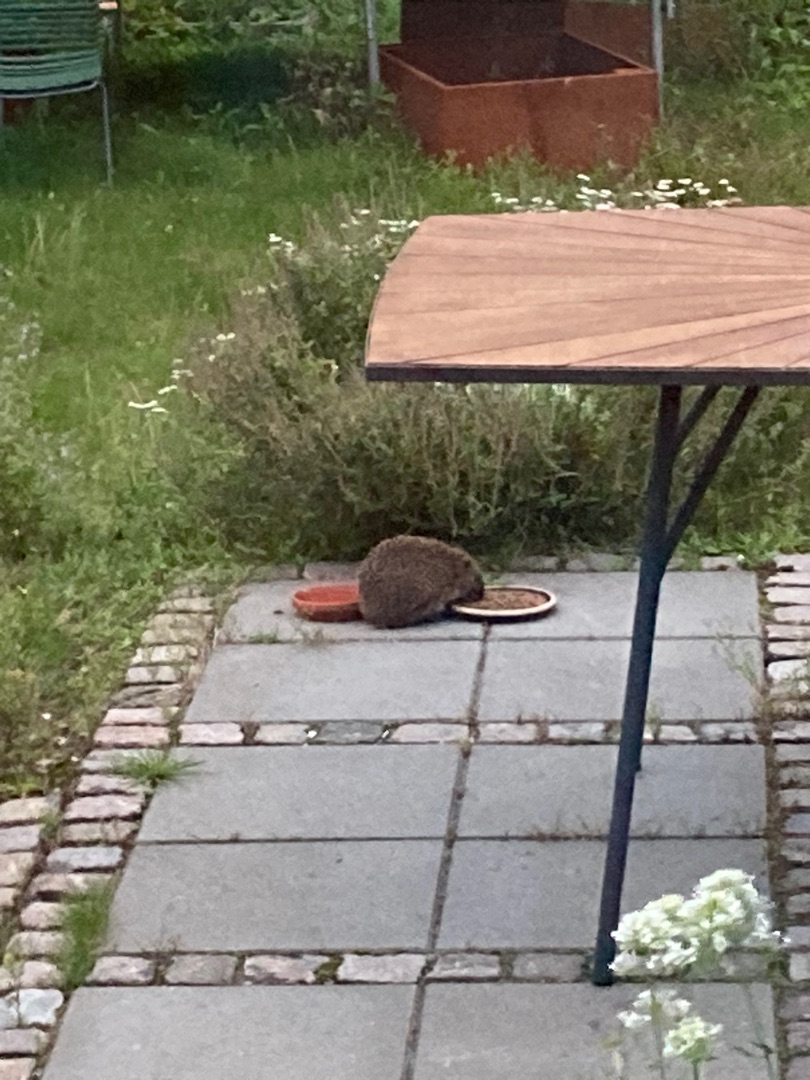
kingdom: Animalia
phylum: Chordata
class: Mammalia
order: Erinaceomorpha
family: Erinaceidae
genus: Erinaceus
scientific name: Erinaceus europaeus
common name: Pindsvin
